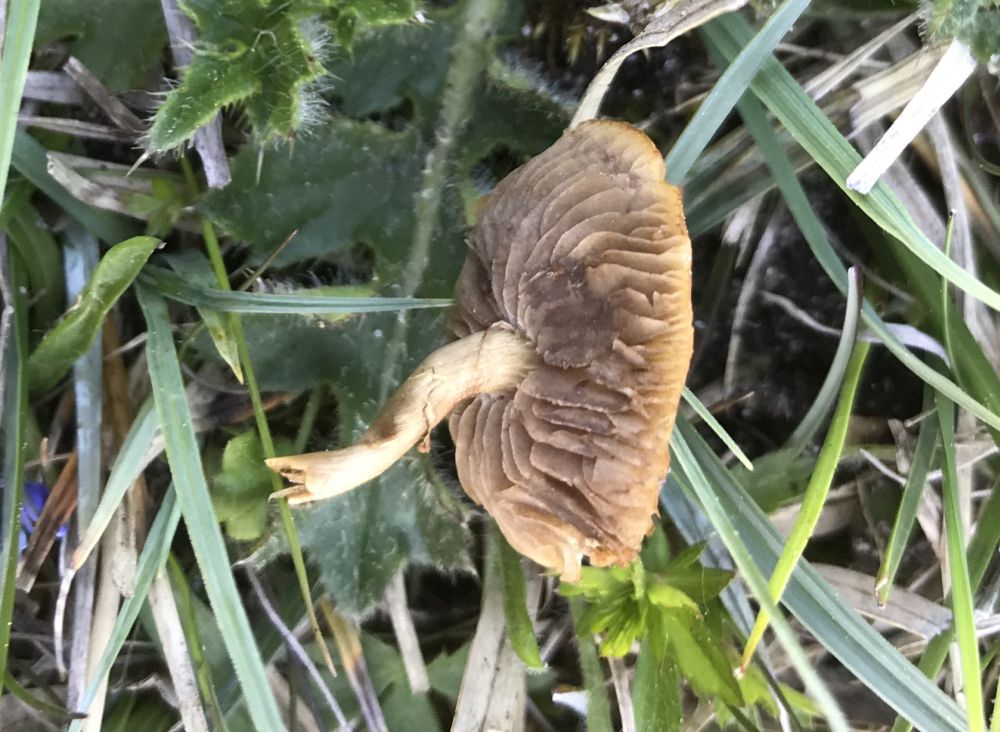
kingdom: Fungi
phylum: Basidiomycota
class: Agaricomycetes
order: Agaricales
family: Strophariaceae
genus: Agrocybe
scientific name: Agrocybe
